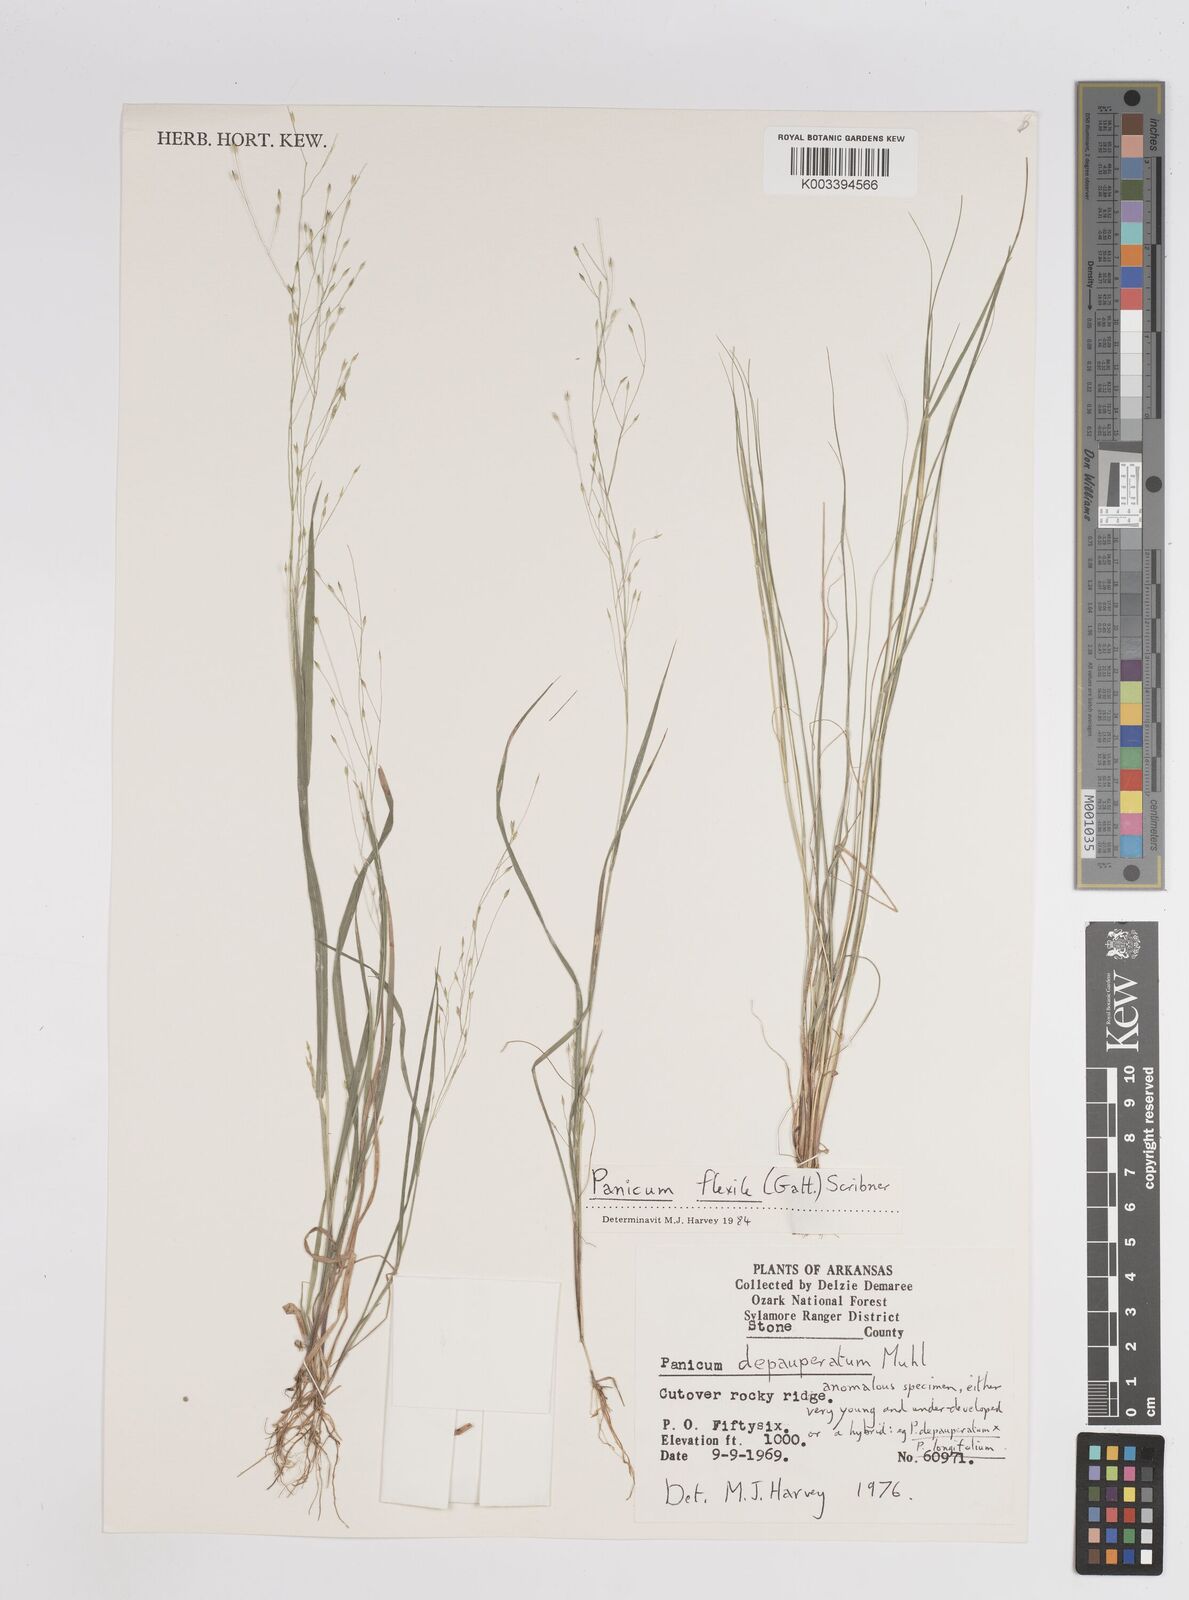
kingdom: Plantae
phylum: Tracheophyta
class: Liliopsida
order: Poales
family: Poaceae
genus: Panicum
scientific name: Panicum flexile
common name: Wiry panicgrass
